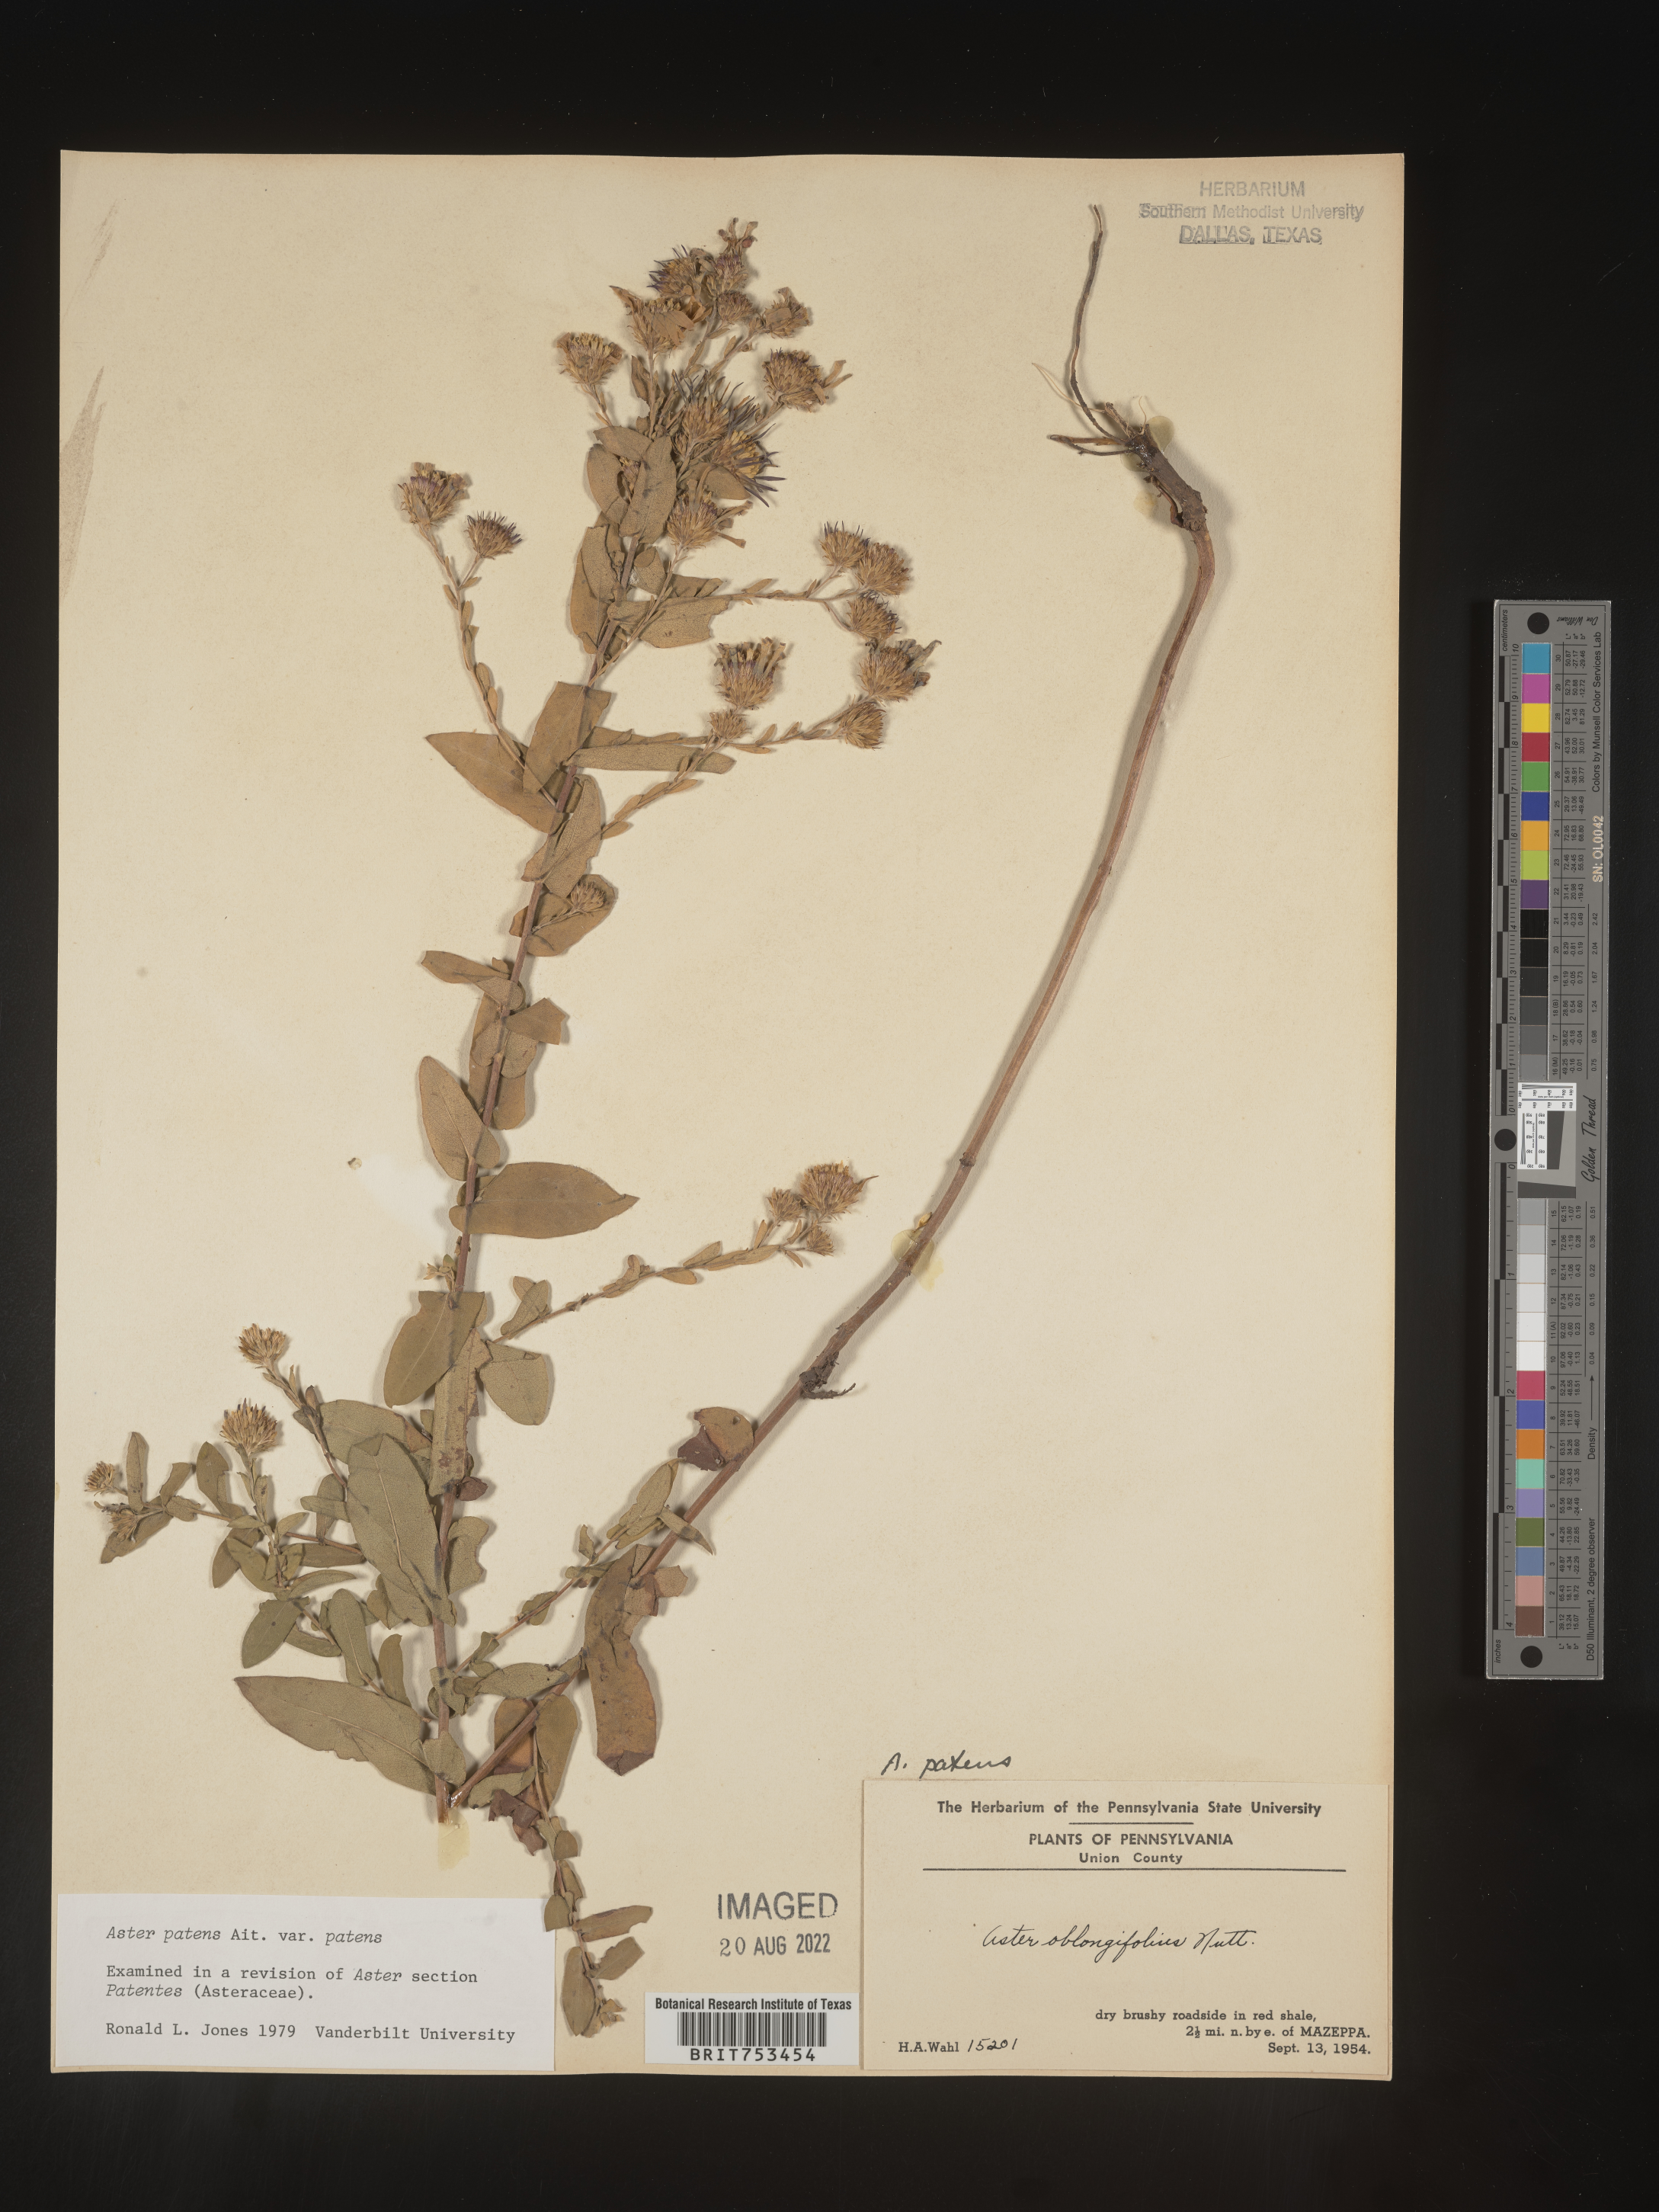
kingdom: Plantae
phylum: Tracheophyta
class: Magnoliopsida
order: Asterales
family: Asteraceae
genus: Symphyotrichum
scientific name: Symphyotrichum patens
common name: Late purple aster
